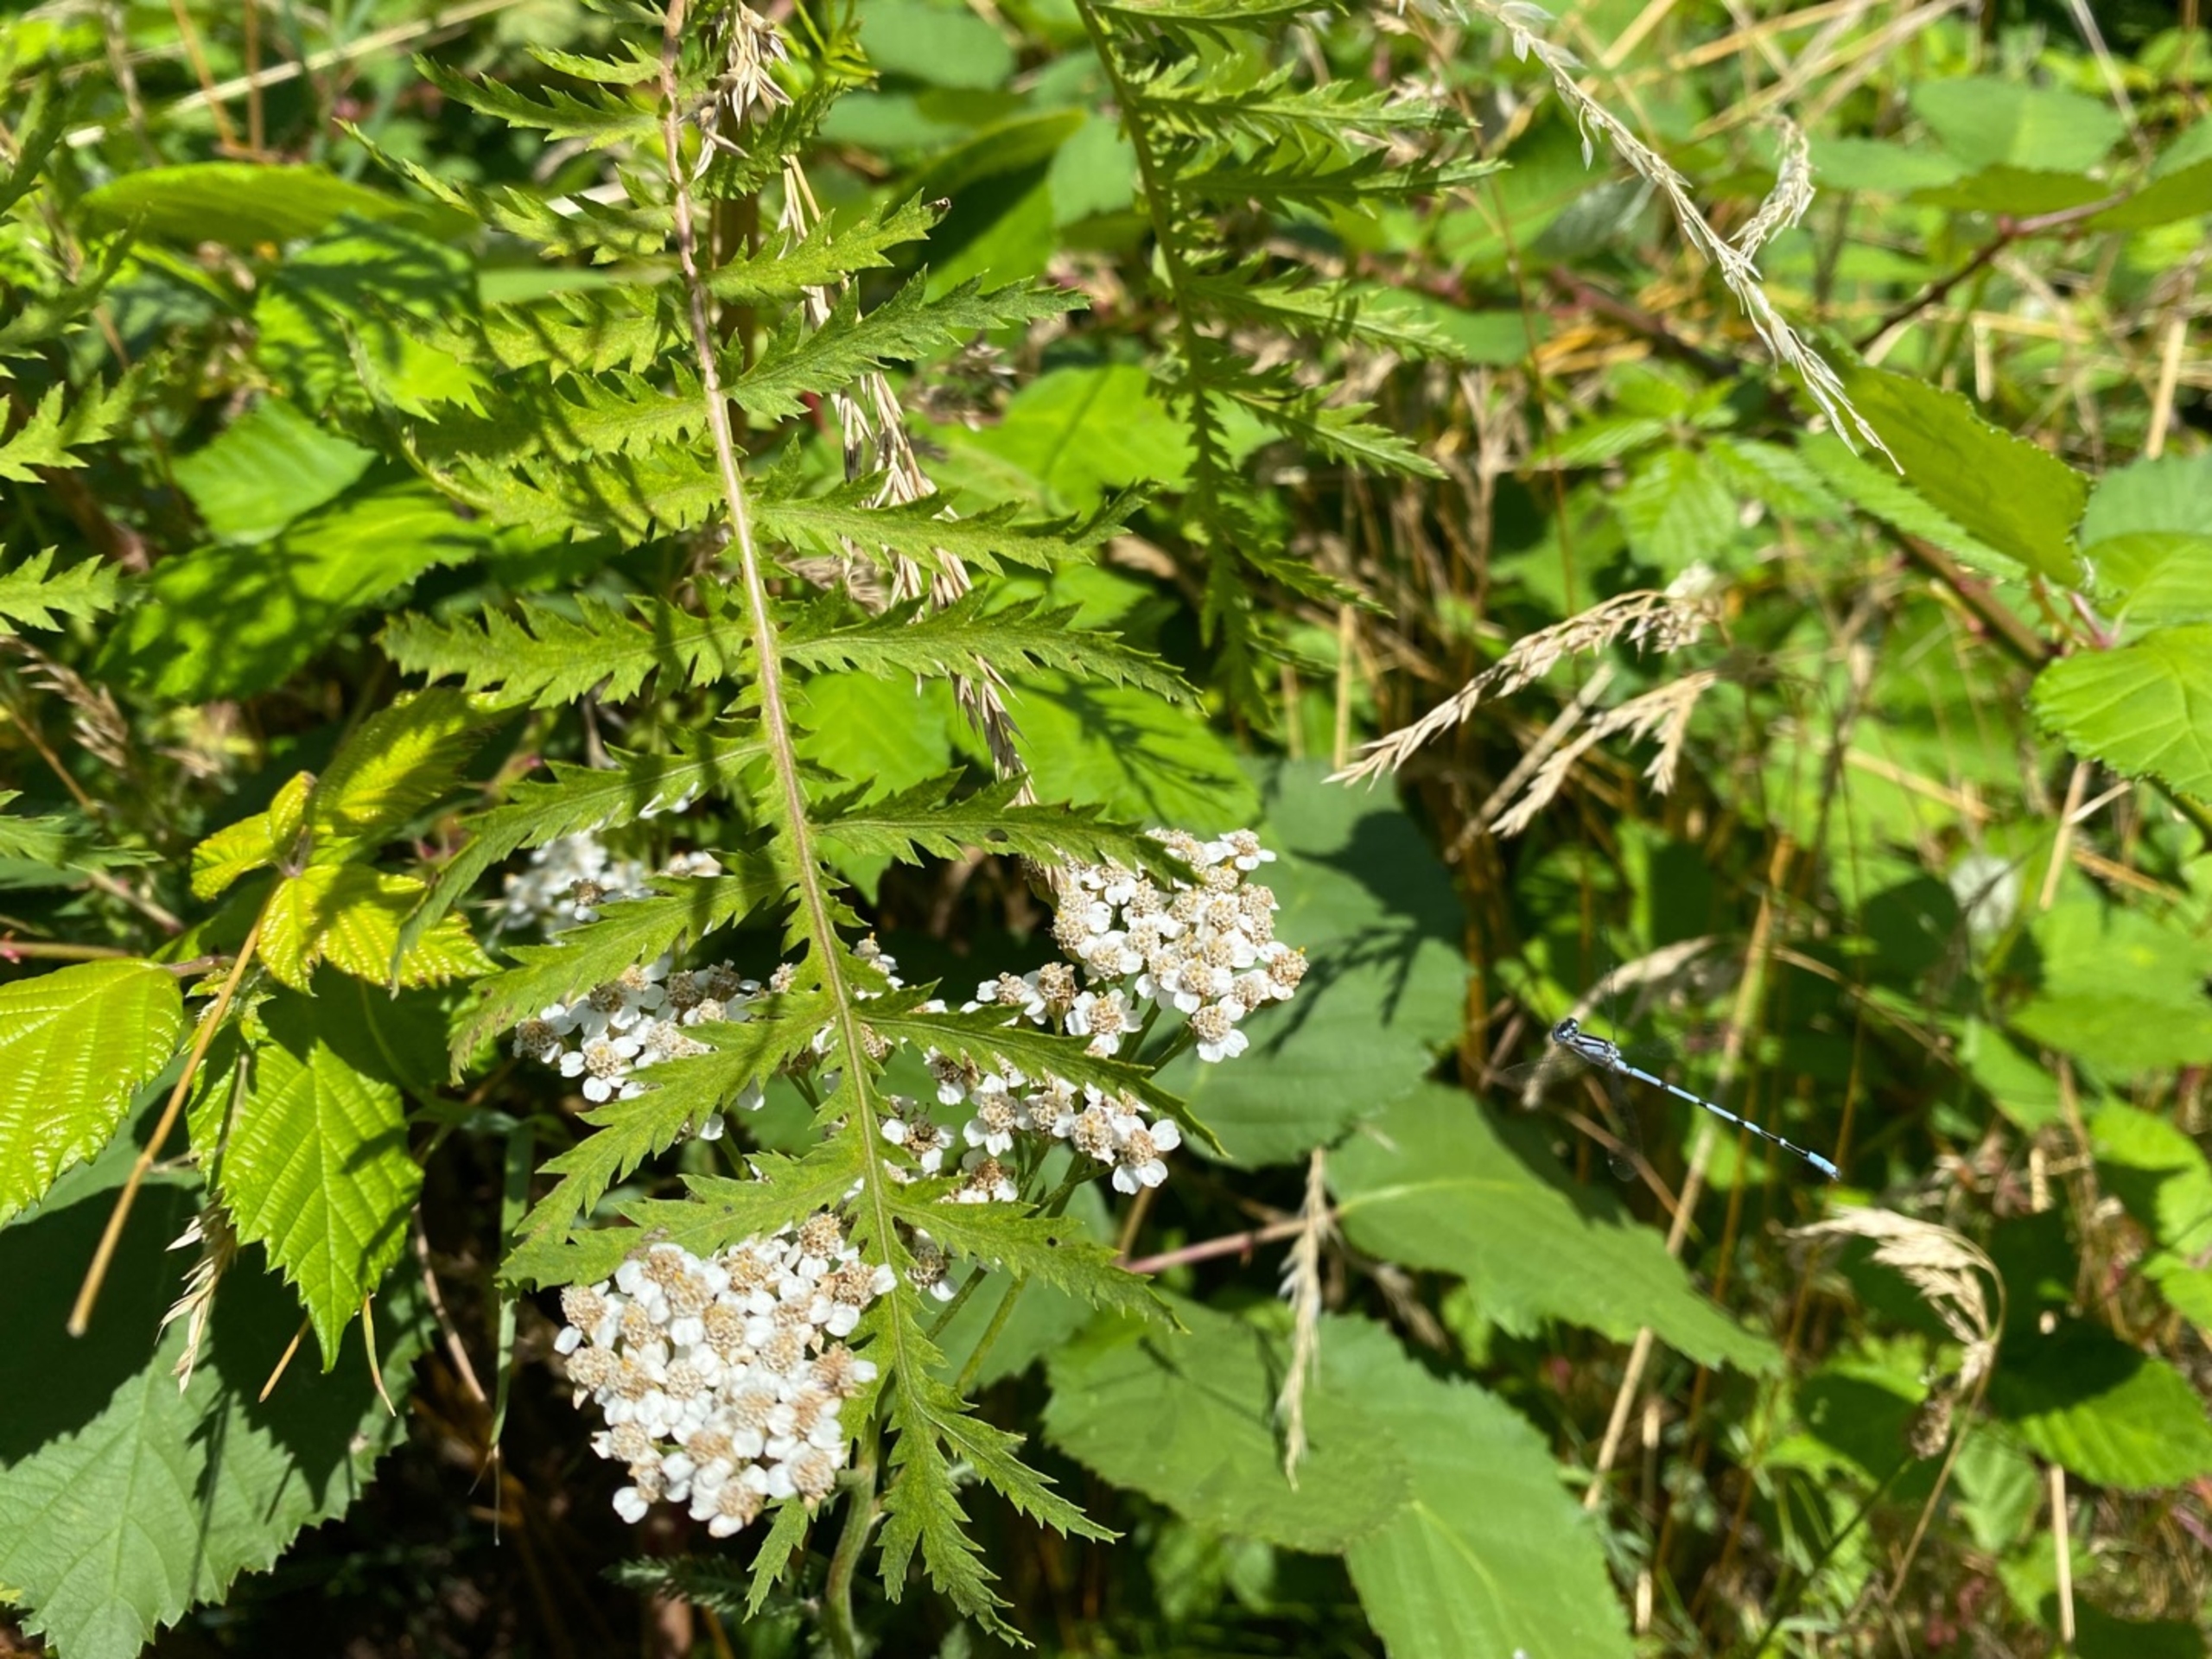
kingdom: Animalia
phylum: Arthropoda
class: Insecta
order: Odonata
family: Coenagrionidae
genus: Enallagma
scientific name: Enallagma cyathigerum
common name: Almindelig vandnymfe
